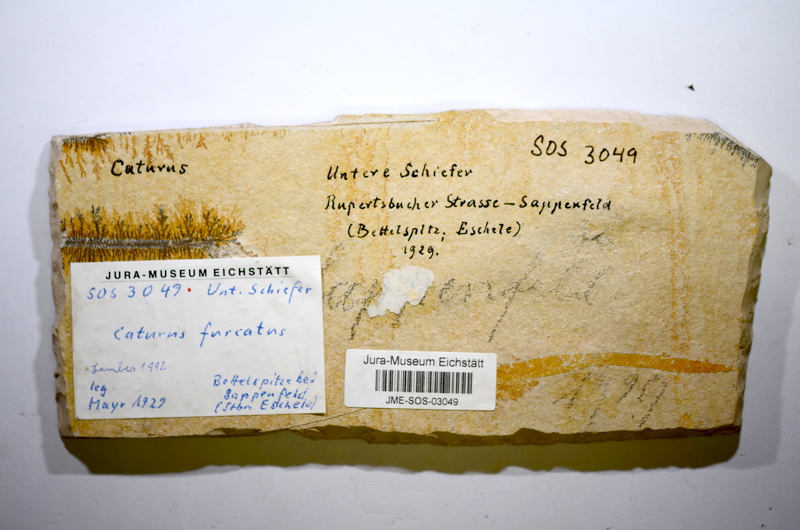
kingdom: Animalia
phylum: Chordata
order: Amiiformes
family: Caturidae
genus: Caturus
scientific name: Caturus furcatus
